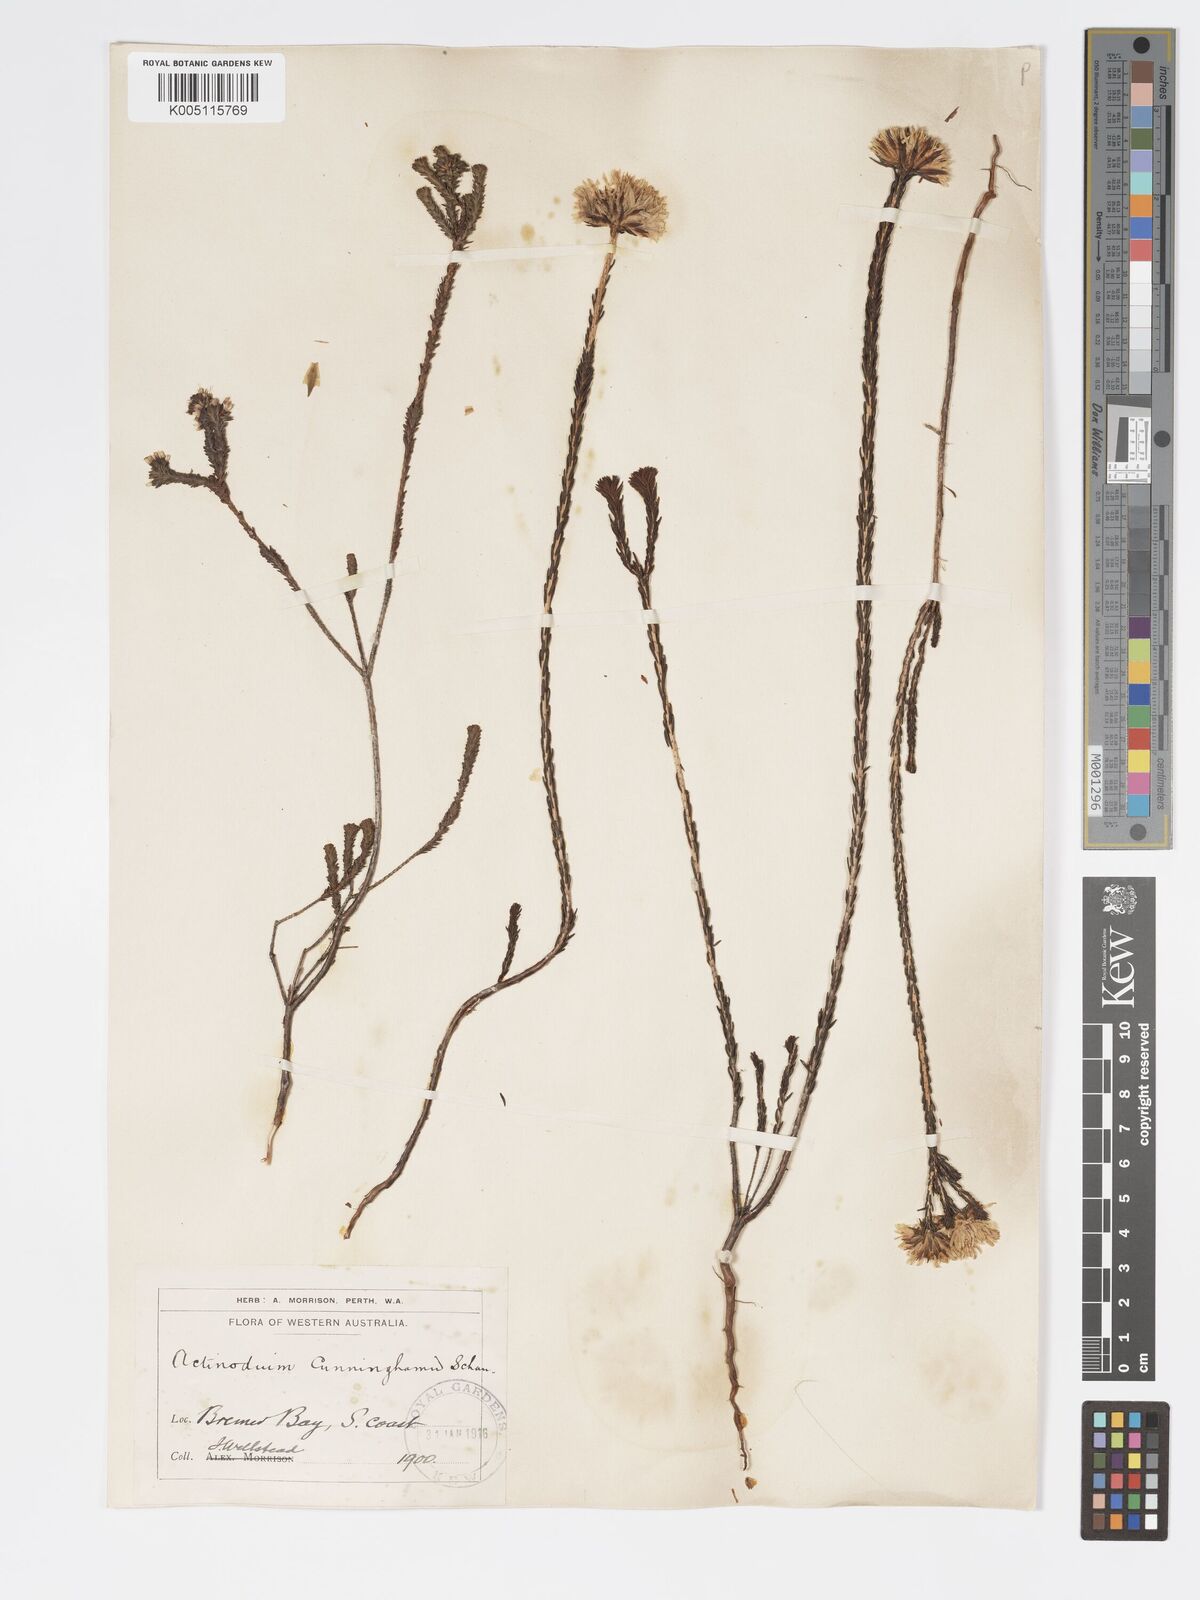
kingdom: Plantae
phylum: Tracheophyta
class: Magnoliopsida
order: Myrtales
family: Myrtaceae
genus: Actinodium
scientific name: Actinodium cunninghamii
